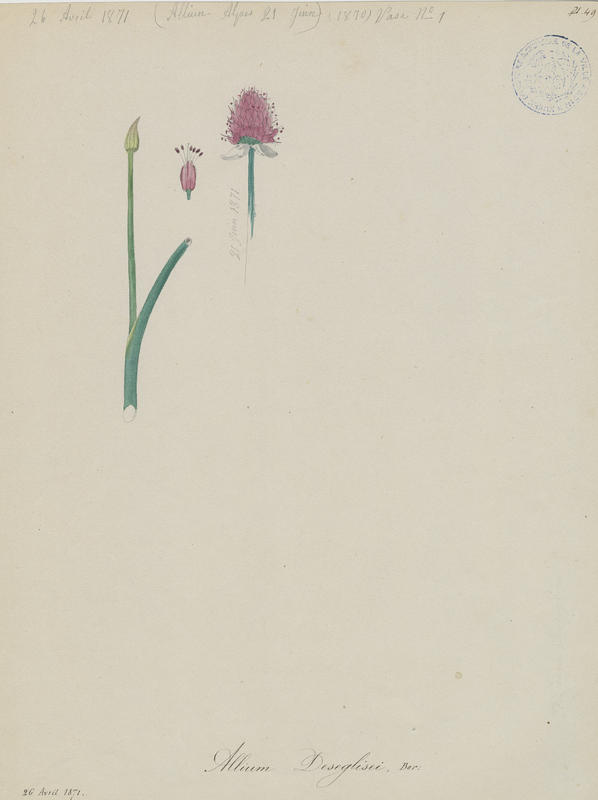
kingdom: Plantae
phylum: Tracheophyta
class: Liliopsida
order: Asparagales
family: Amaryllidaceae
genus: Allium
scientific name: Allium sphaerocephalon
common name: Round-headed leek
